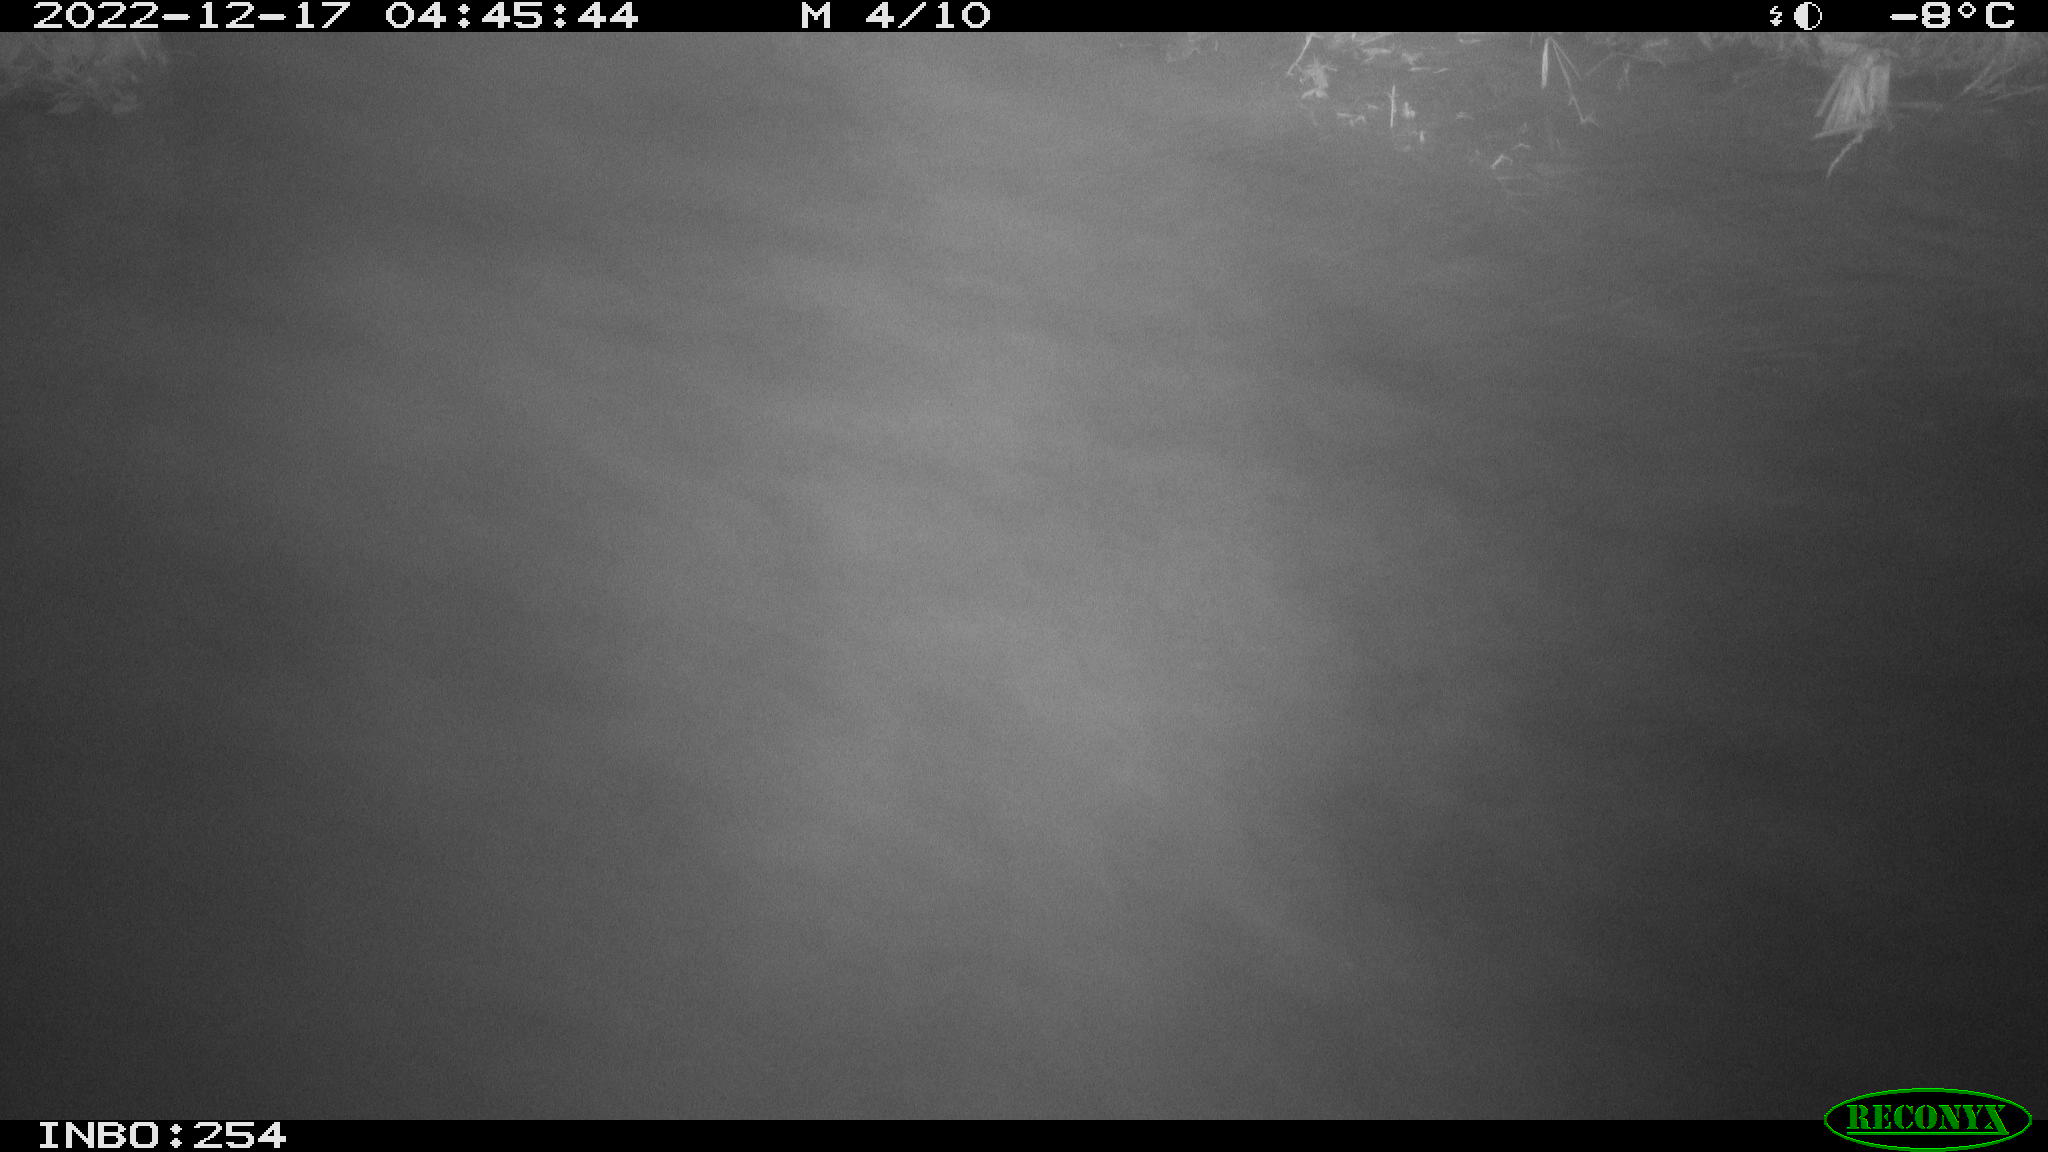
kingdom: Animalia
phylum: Chordata
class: Aves
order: Anseriformes
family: Anatidae
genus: Anas
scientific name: Anas
